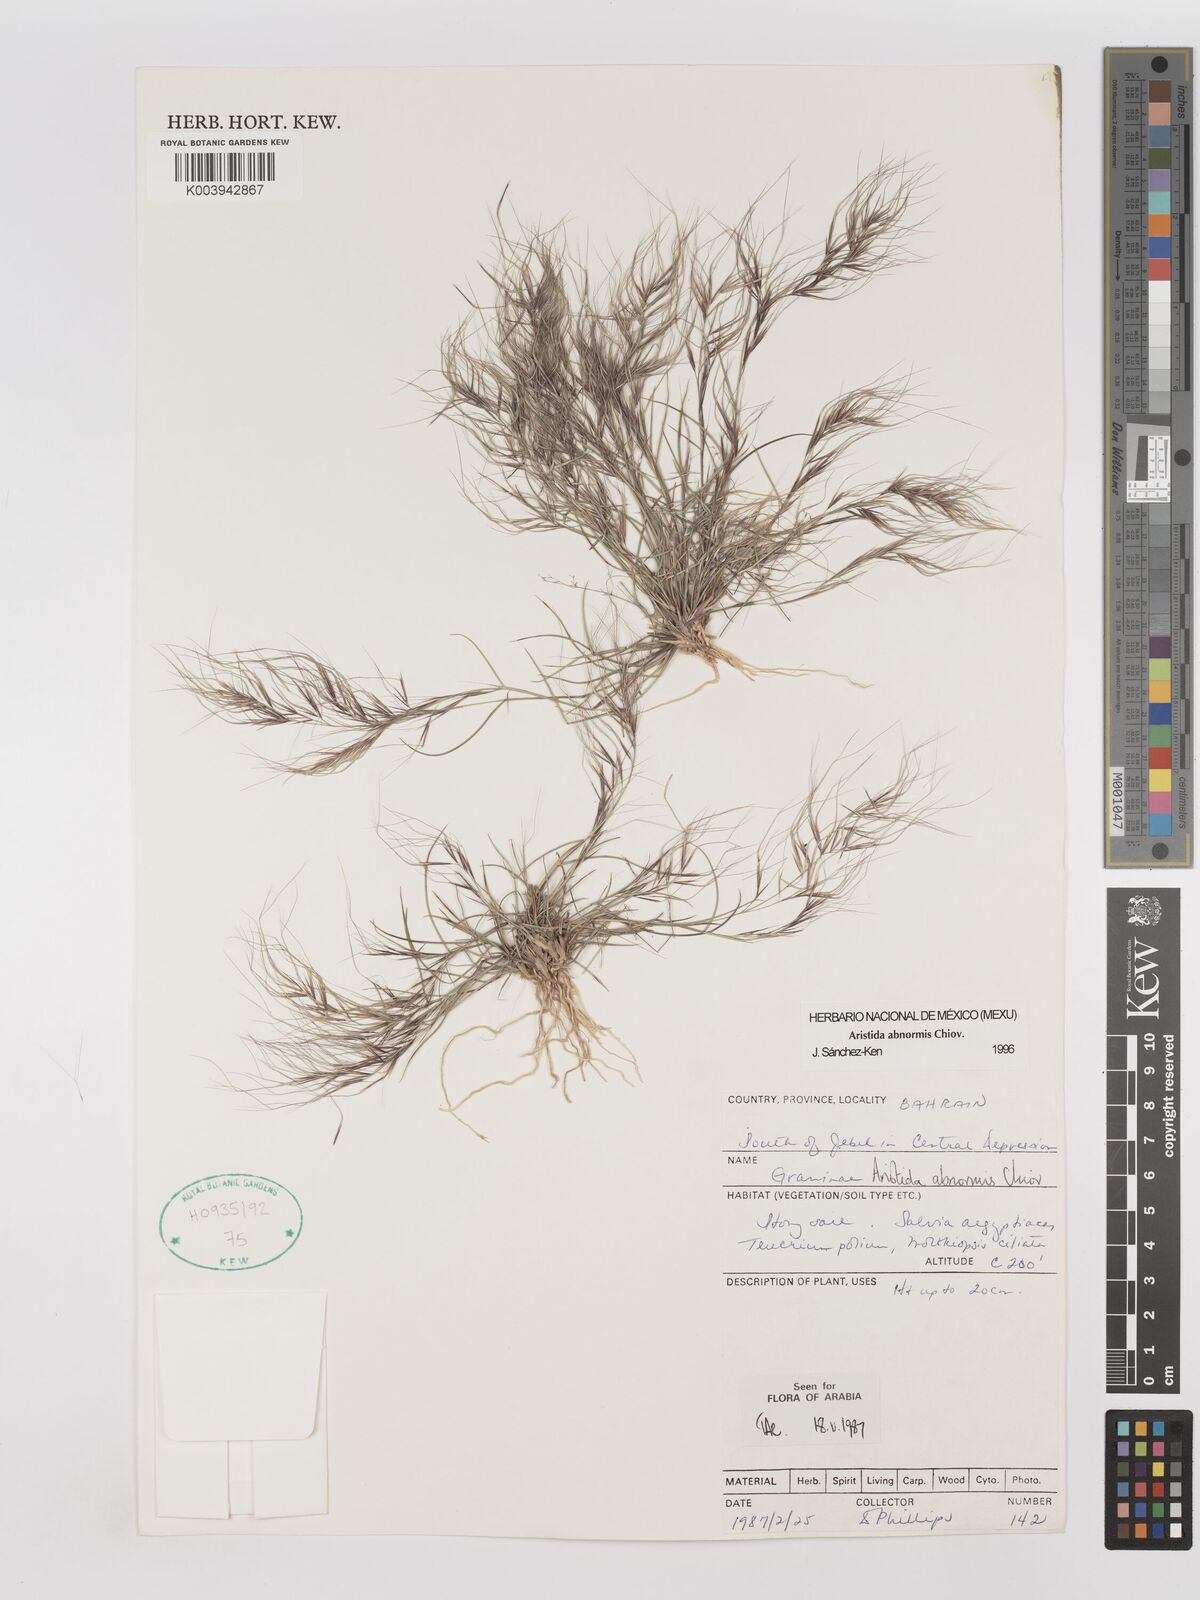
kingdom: Plantae
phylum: Tracheophyta
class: Liliopsida
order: Poales
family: Poaceae
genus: Aristida
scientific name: Aristida abnormis
